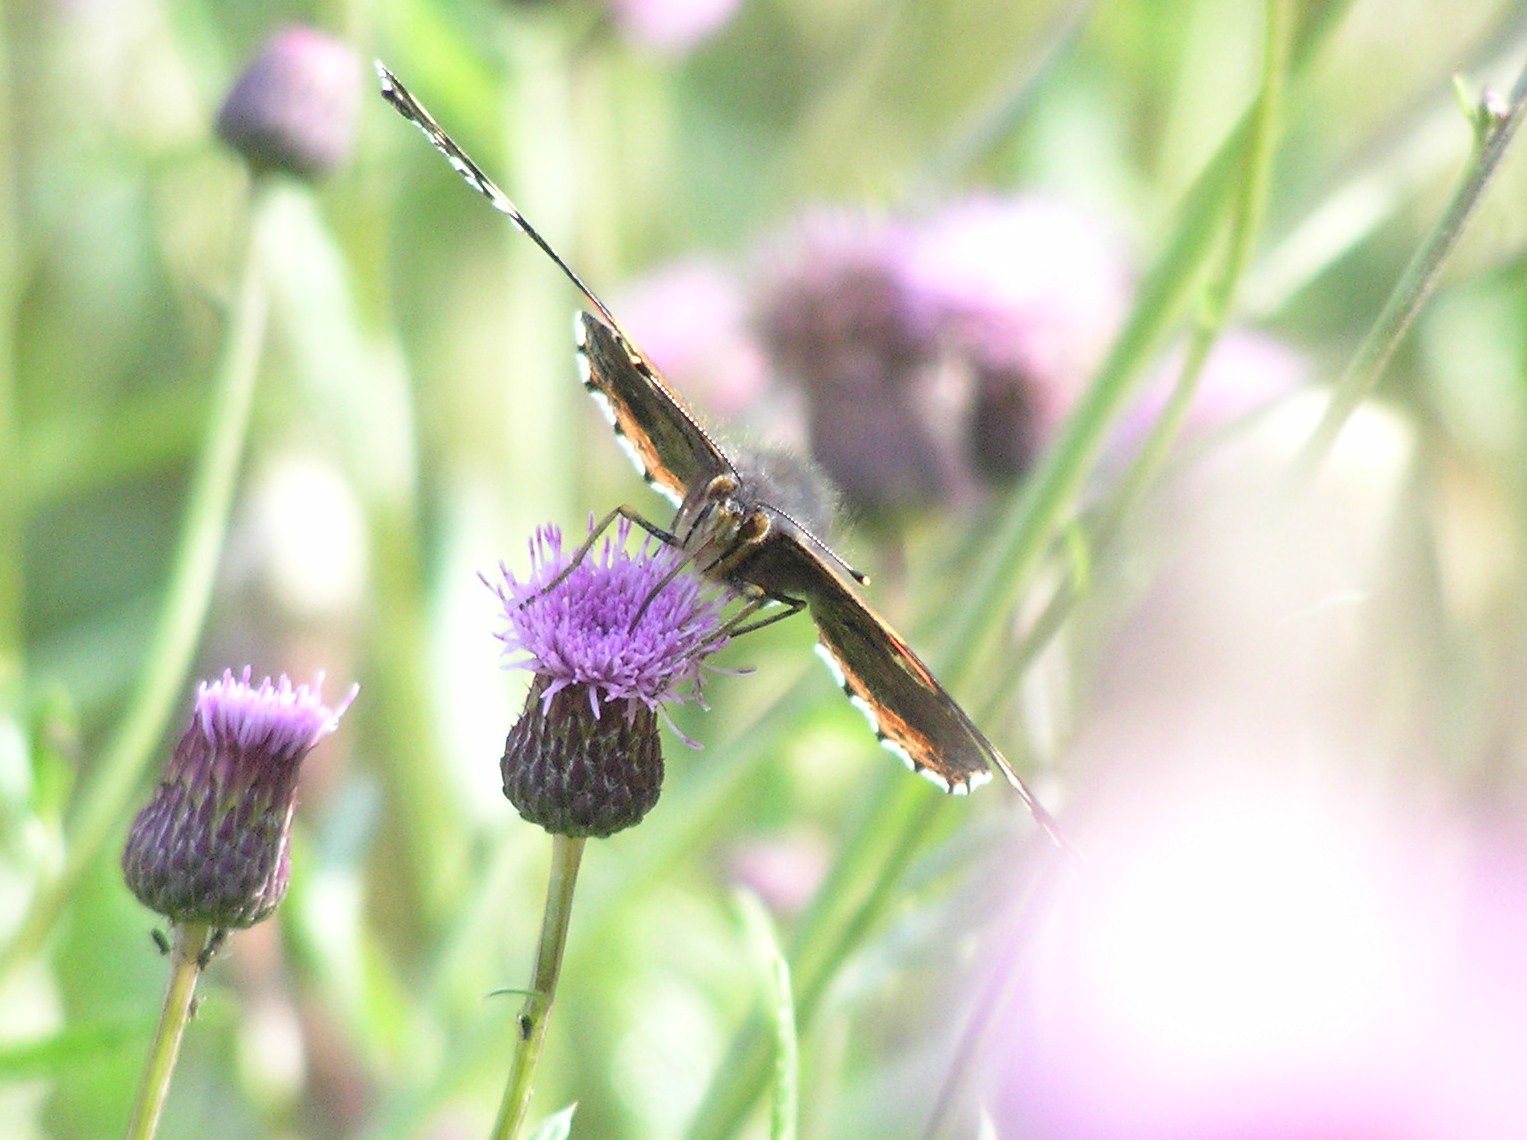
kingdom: Animalia
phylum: Arthropoda
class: Insecta
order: Lepidoptera
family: Nymphalidae
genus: Vanessa
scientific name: Vanessa atalanta
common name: Red admiral
